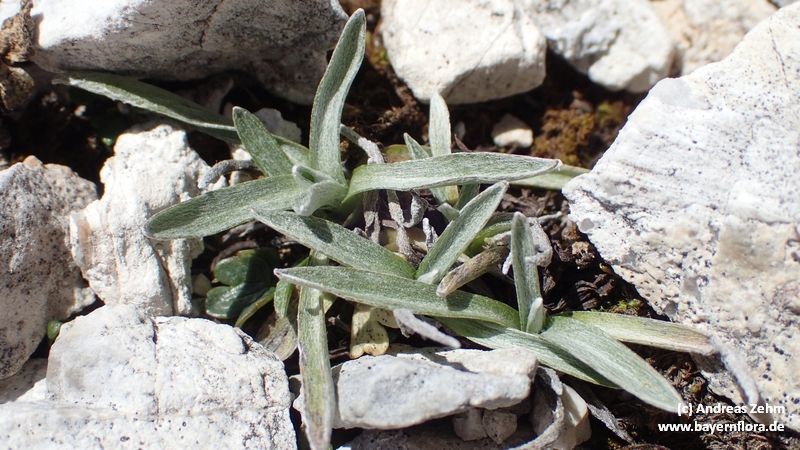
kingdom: Plantae
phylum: Tracheophyta
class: Magnoliopsida
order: Asterales
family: Asteraceae
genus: Omalotheca
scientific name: Omalotheca supina
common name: Alpine arctic-cudweed
